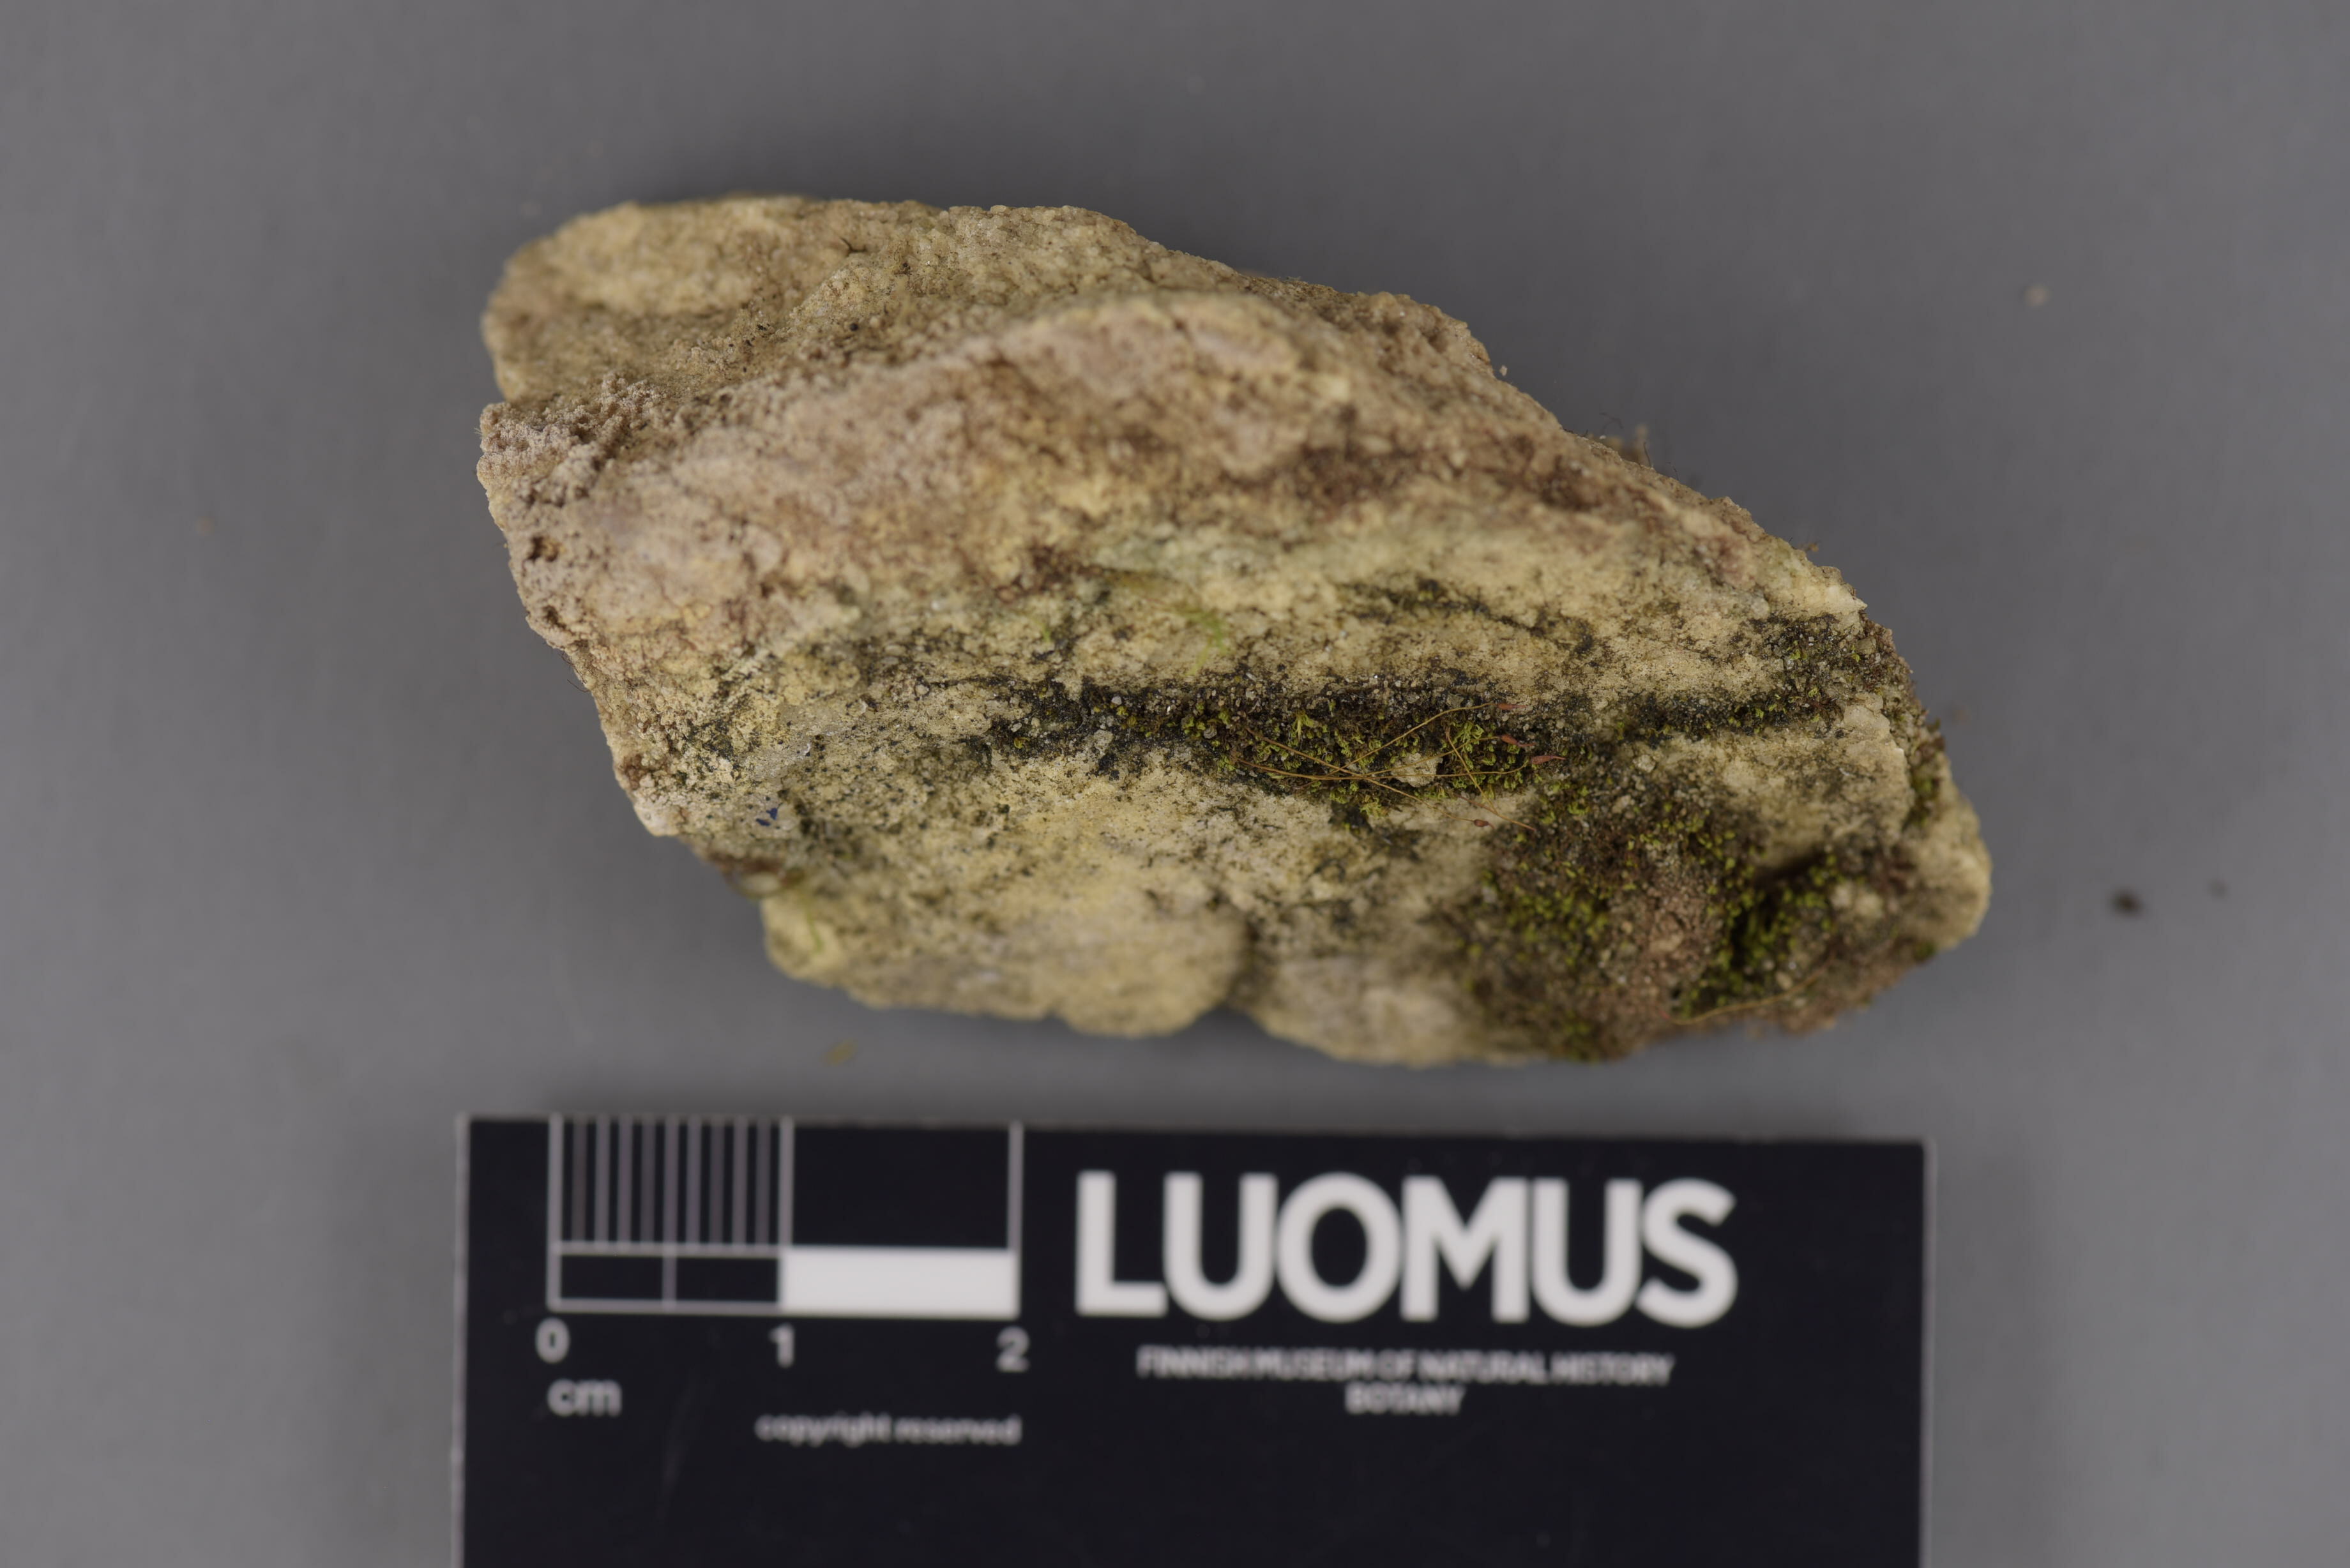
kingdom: Fungi
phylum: Ascomycota
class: Eurotiomycetes
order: Verrucariales
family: Verrucariaceae
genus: Verrucaria
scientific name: Verrucaria
